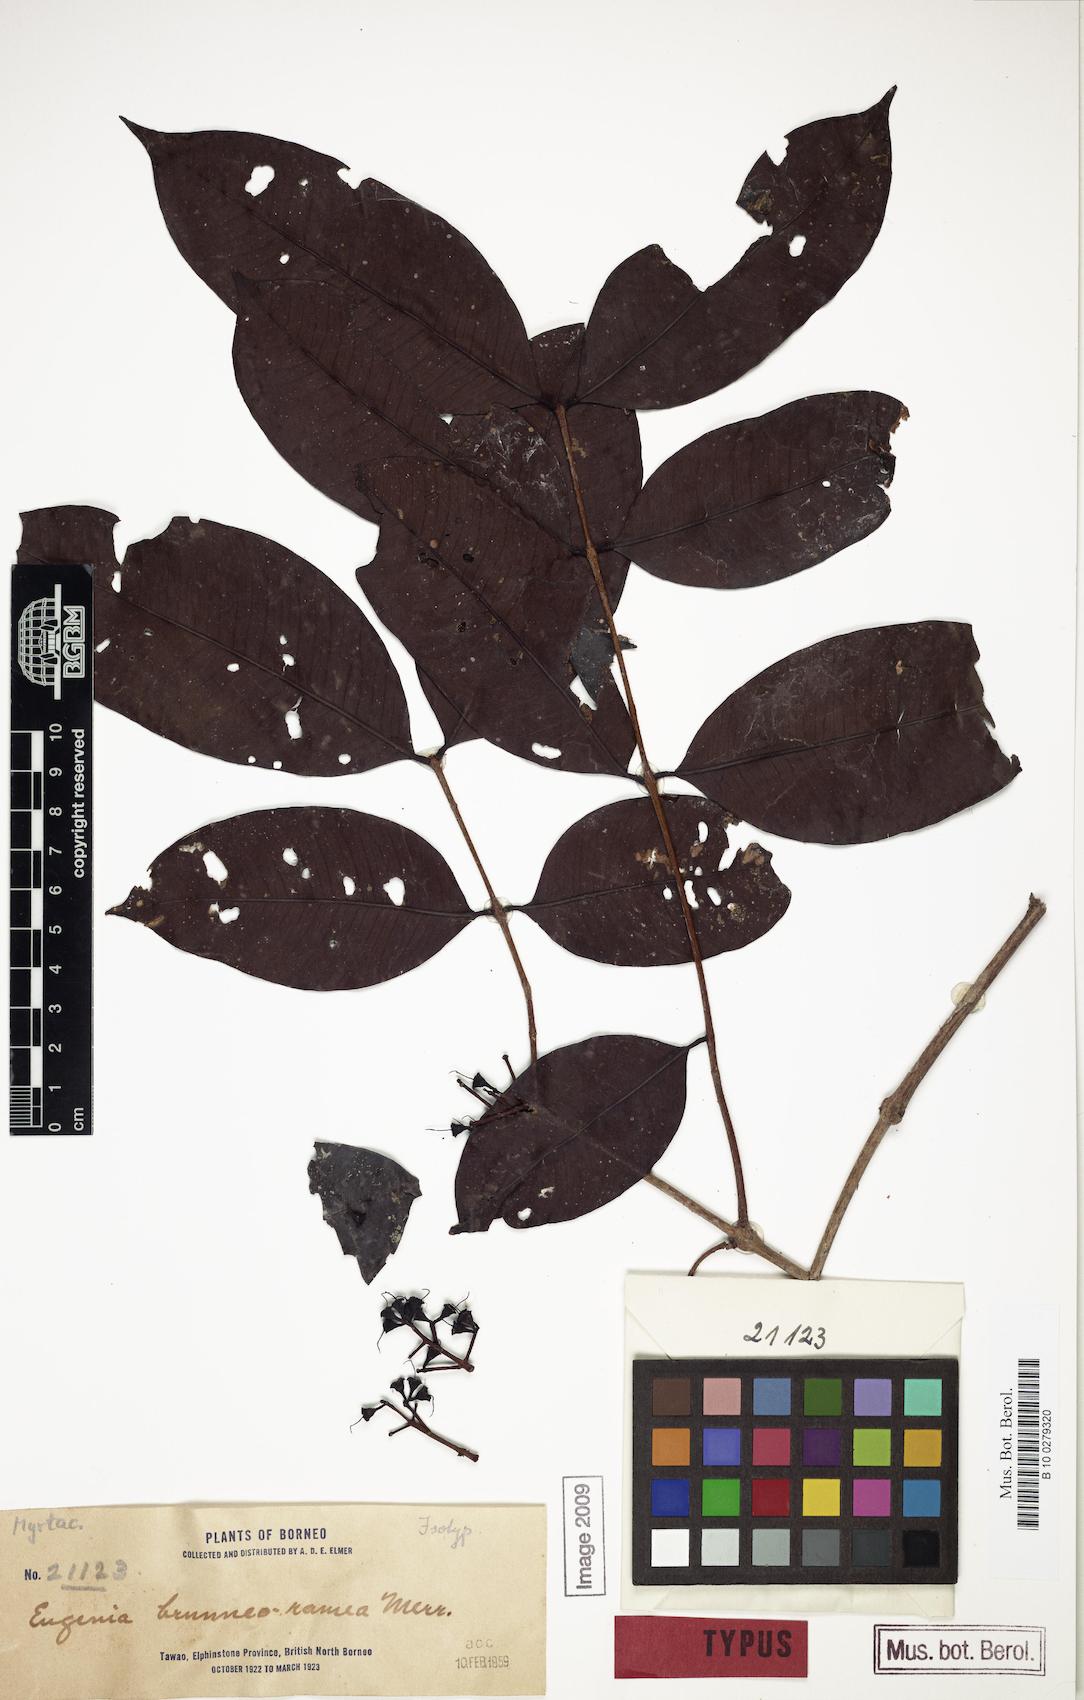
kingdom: Plantae
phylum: Tracheophyta
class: Magnoliopsida
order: Myrtales
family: Myrtaceae
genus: Syzygium
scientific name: Syzygium racemosum
